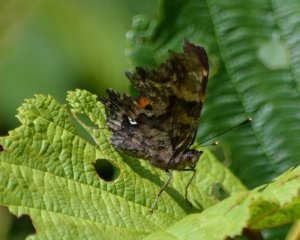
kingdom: Animalia
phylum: Arthropoda
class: Insecta
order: Lepidoptera
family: Nymphalidae
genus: Polygonia
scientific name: Polygonia faunus
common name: Green Comma
